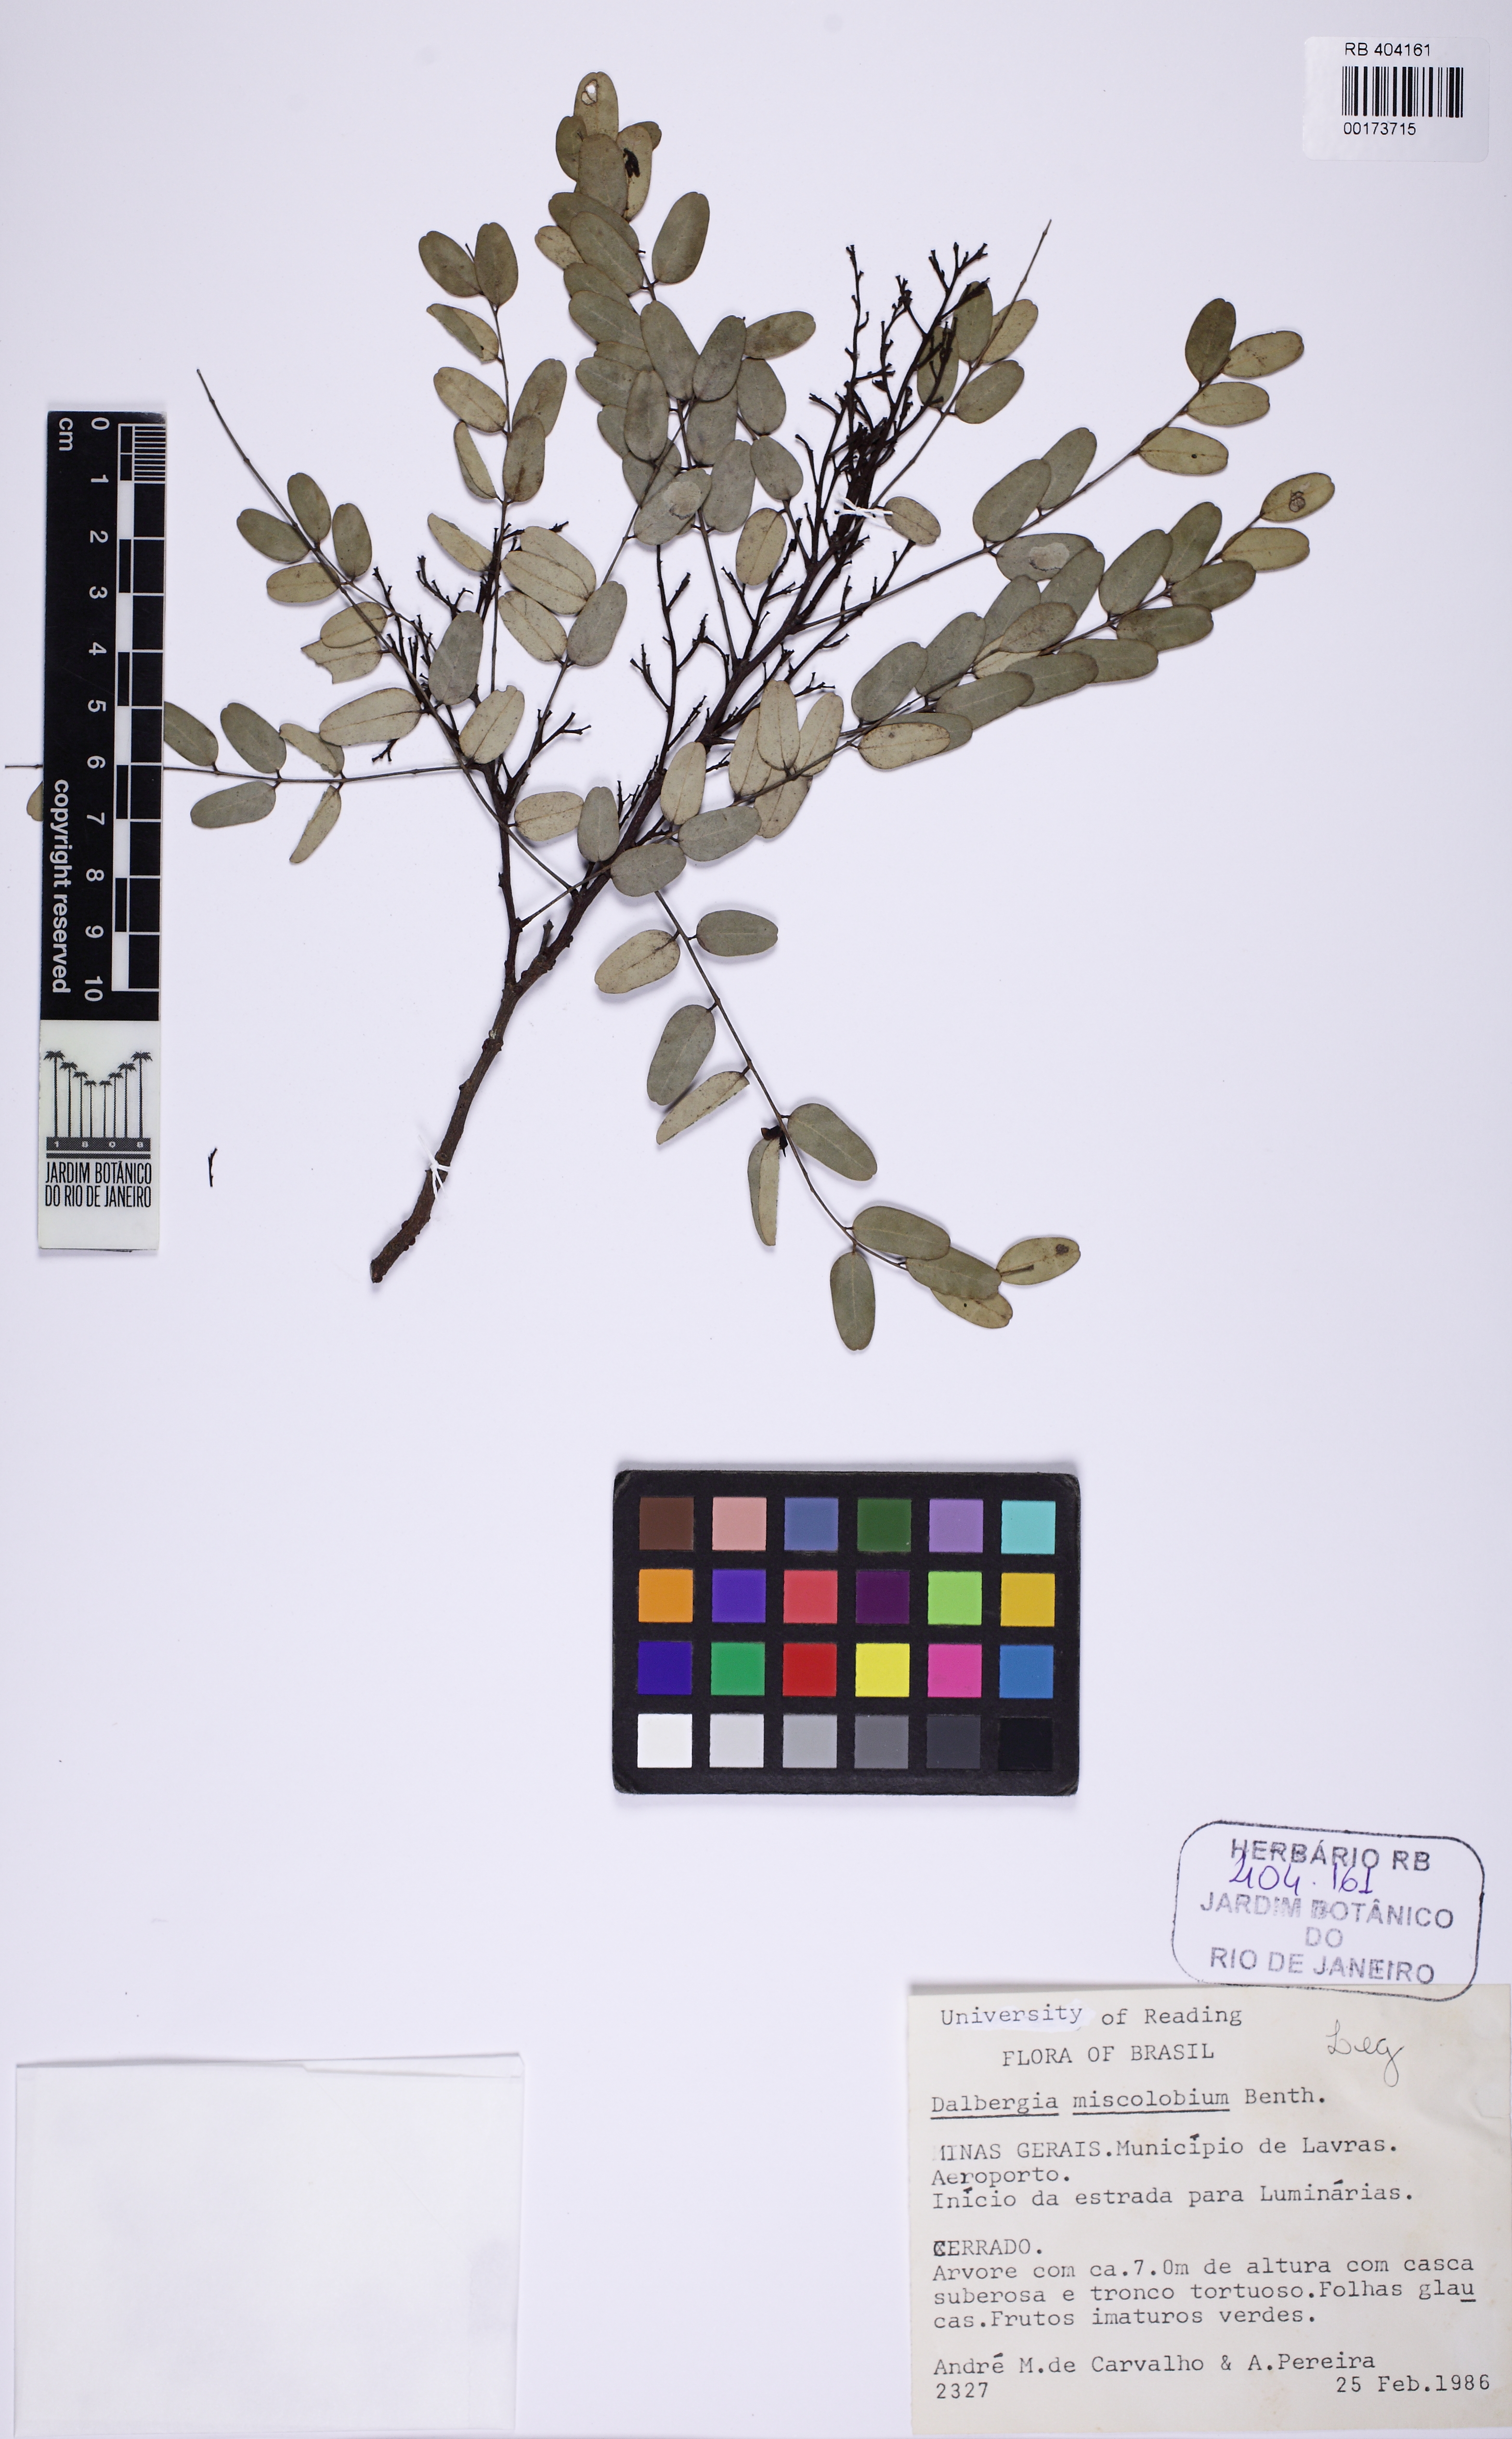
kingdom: Plantae
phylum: Tracheophyta
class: Magnoliopsida
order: Fabales
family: Fabaceae
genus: Dalbergia
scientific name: Dalbergia miscolobium
